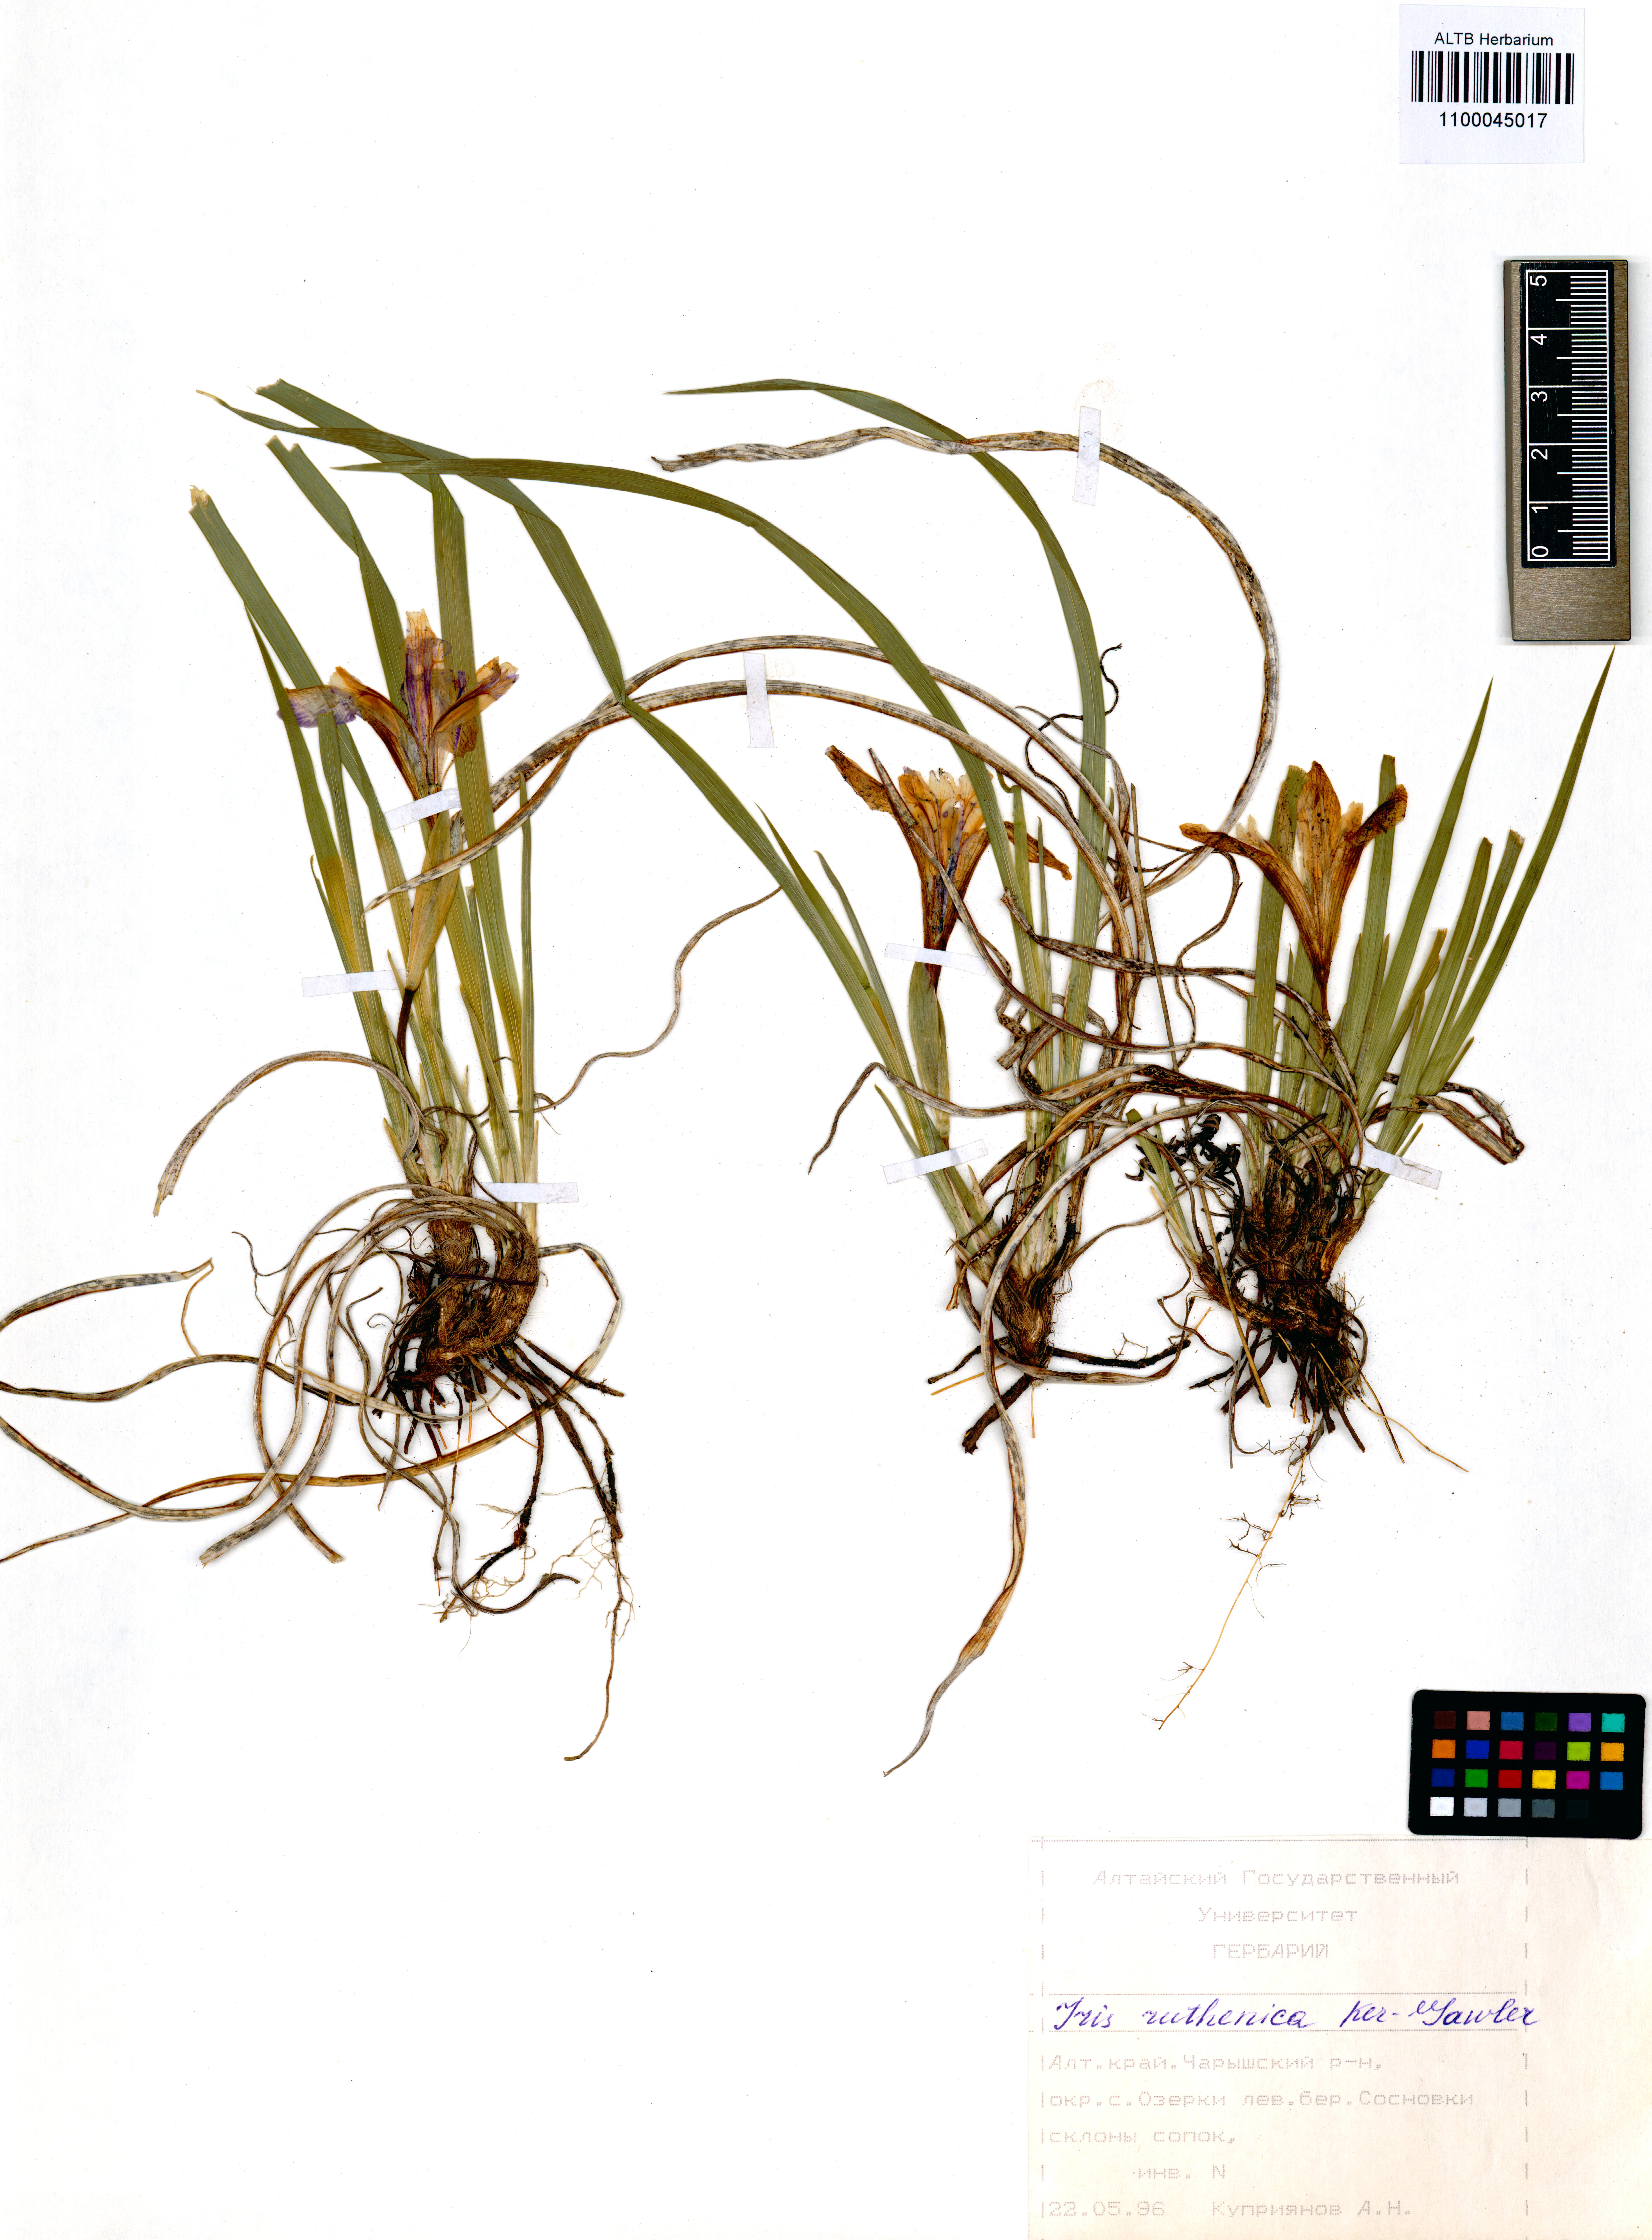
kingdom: Plantae
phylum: Tracheophyta
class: Liliopsida
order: Asparagales
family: Iridaceae
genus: Iris
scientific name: Iris ruthenica
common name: Purple-bract iris
